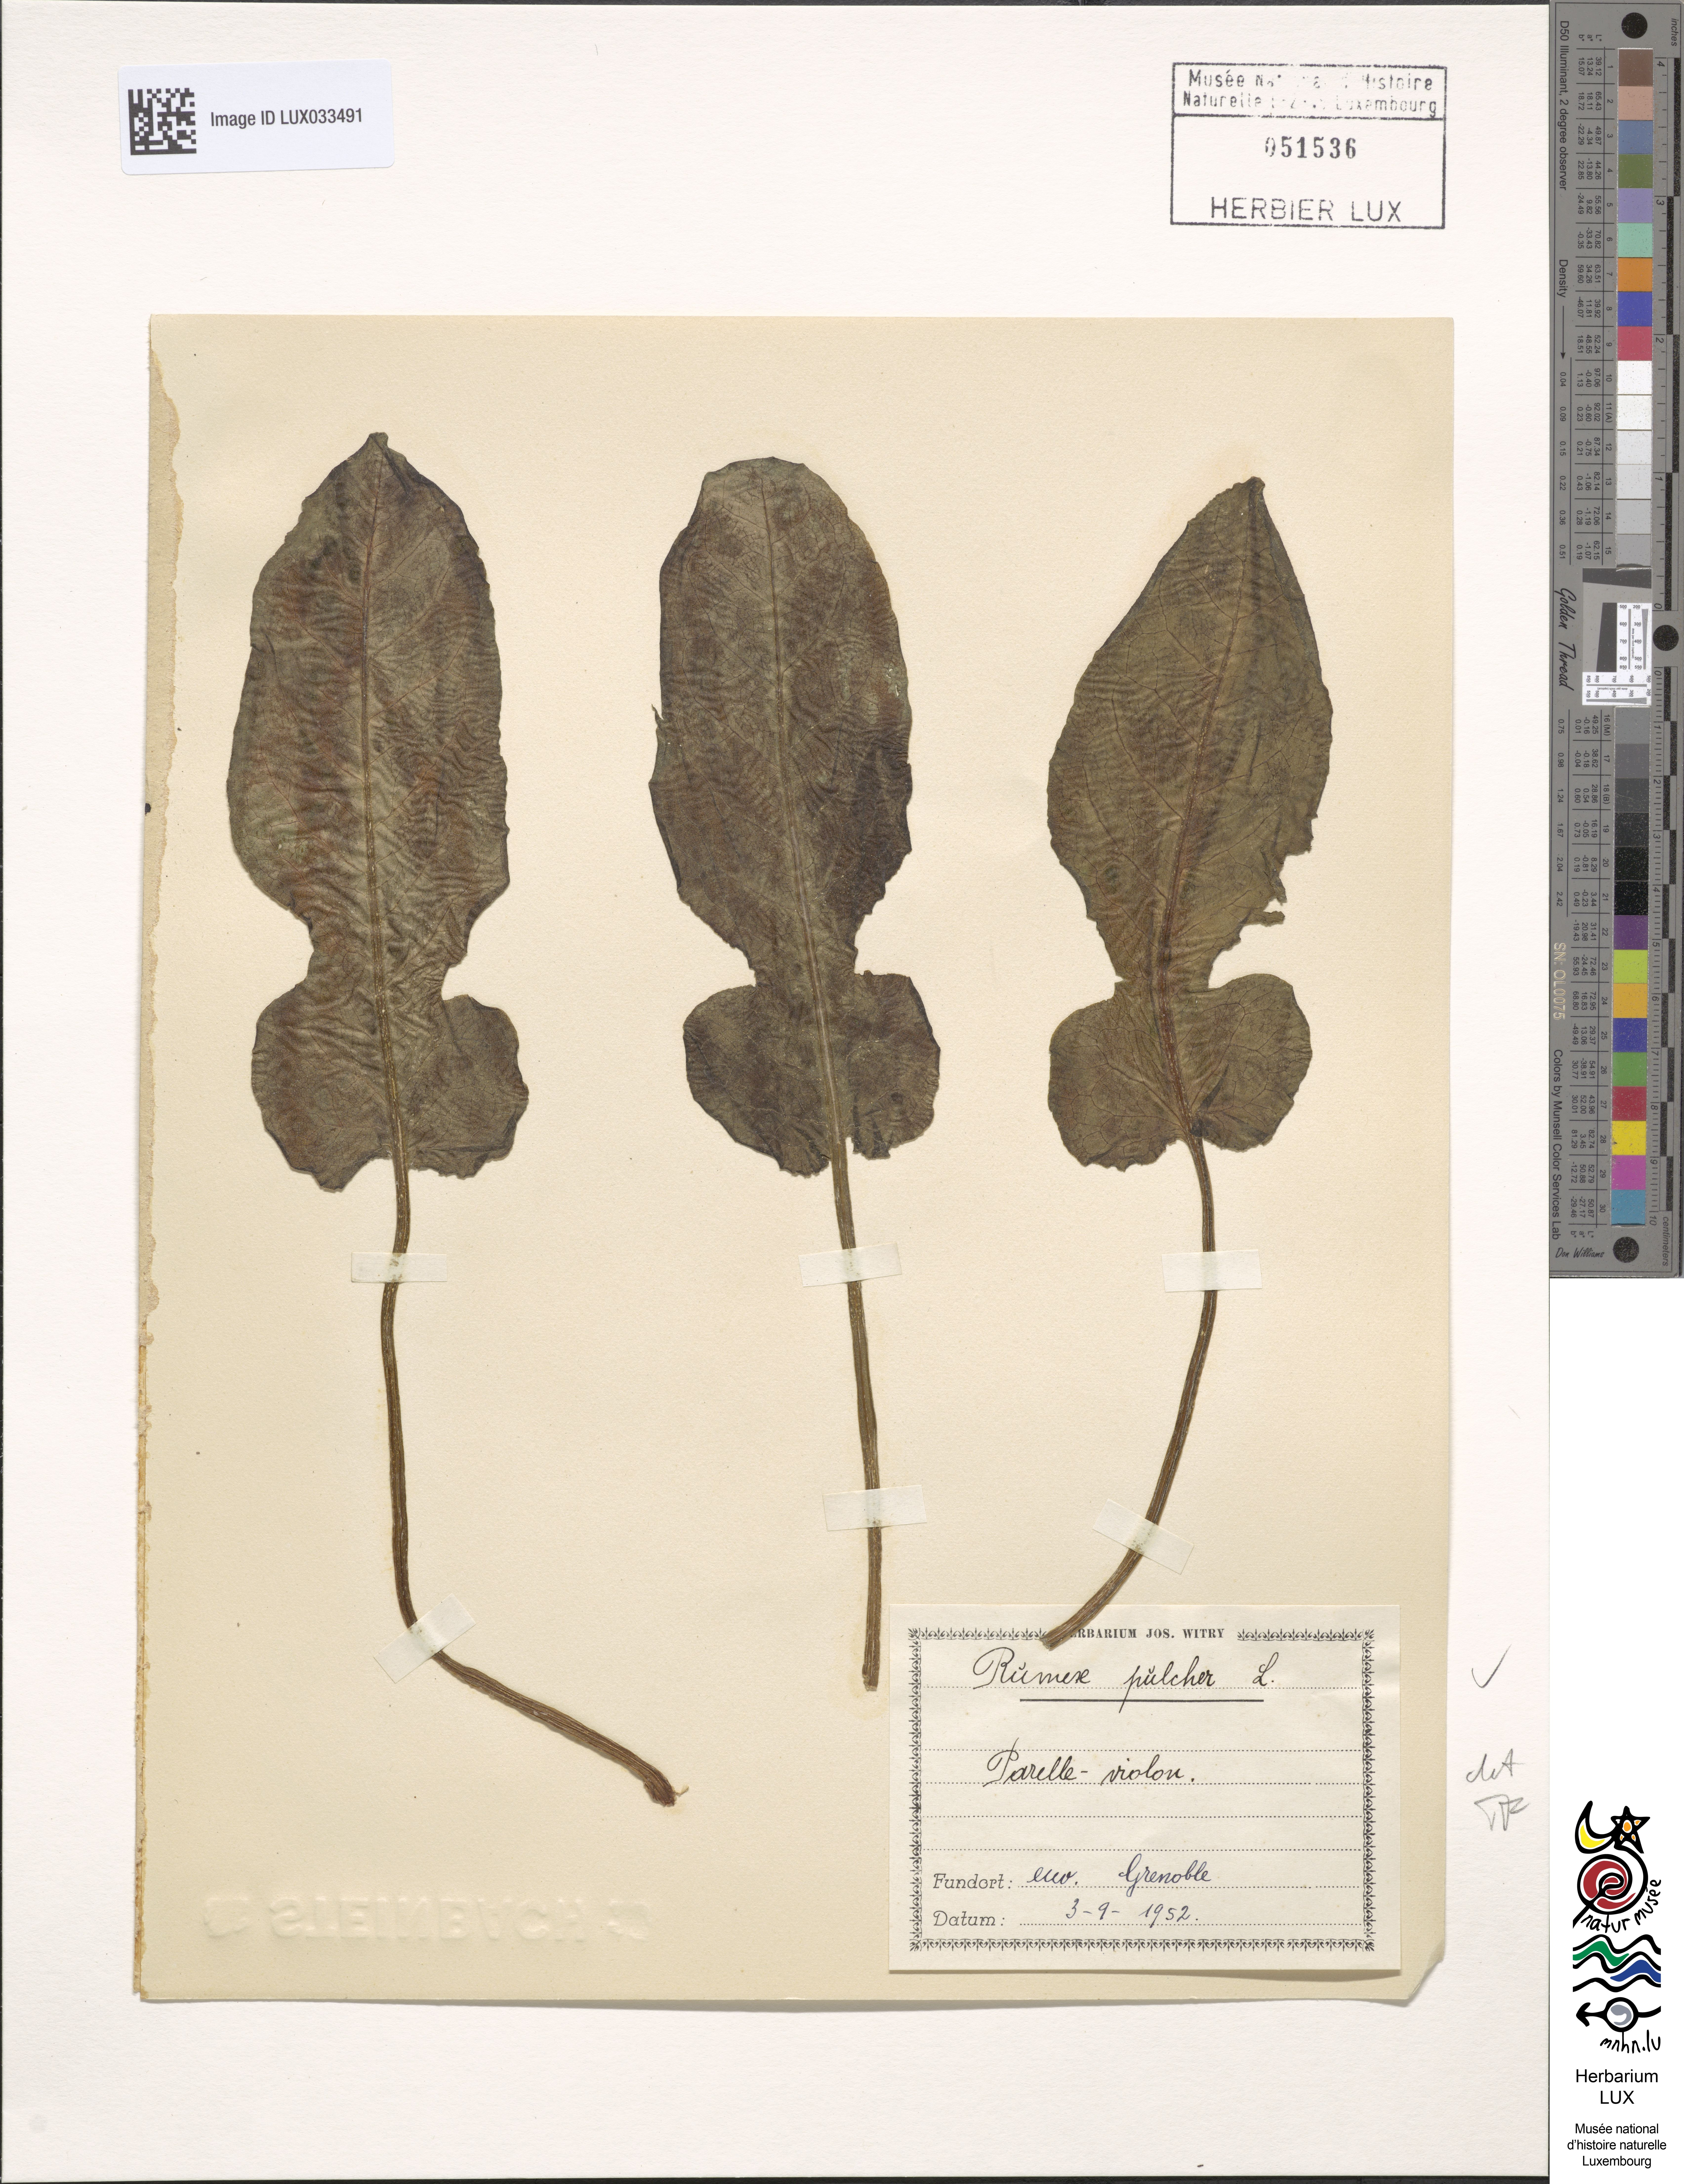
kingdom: Plantae
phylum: Tracheophyta
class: Magnoliopsida
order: Caryophyllales
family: Polygonaceae
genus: Rumex
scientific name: Rumex pulcher
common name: Fiddle dock
